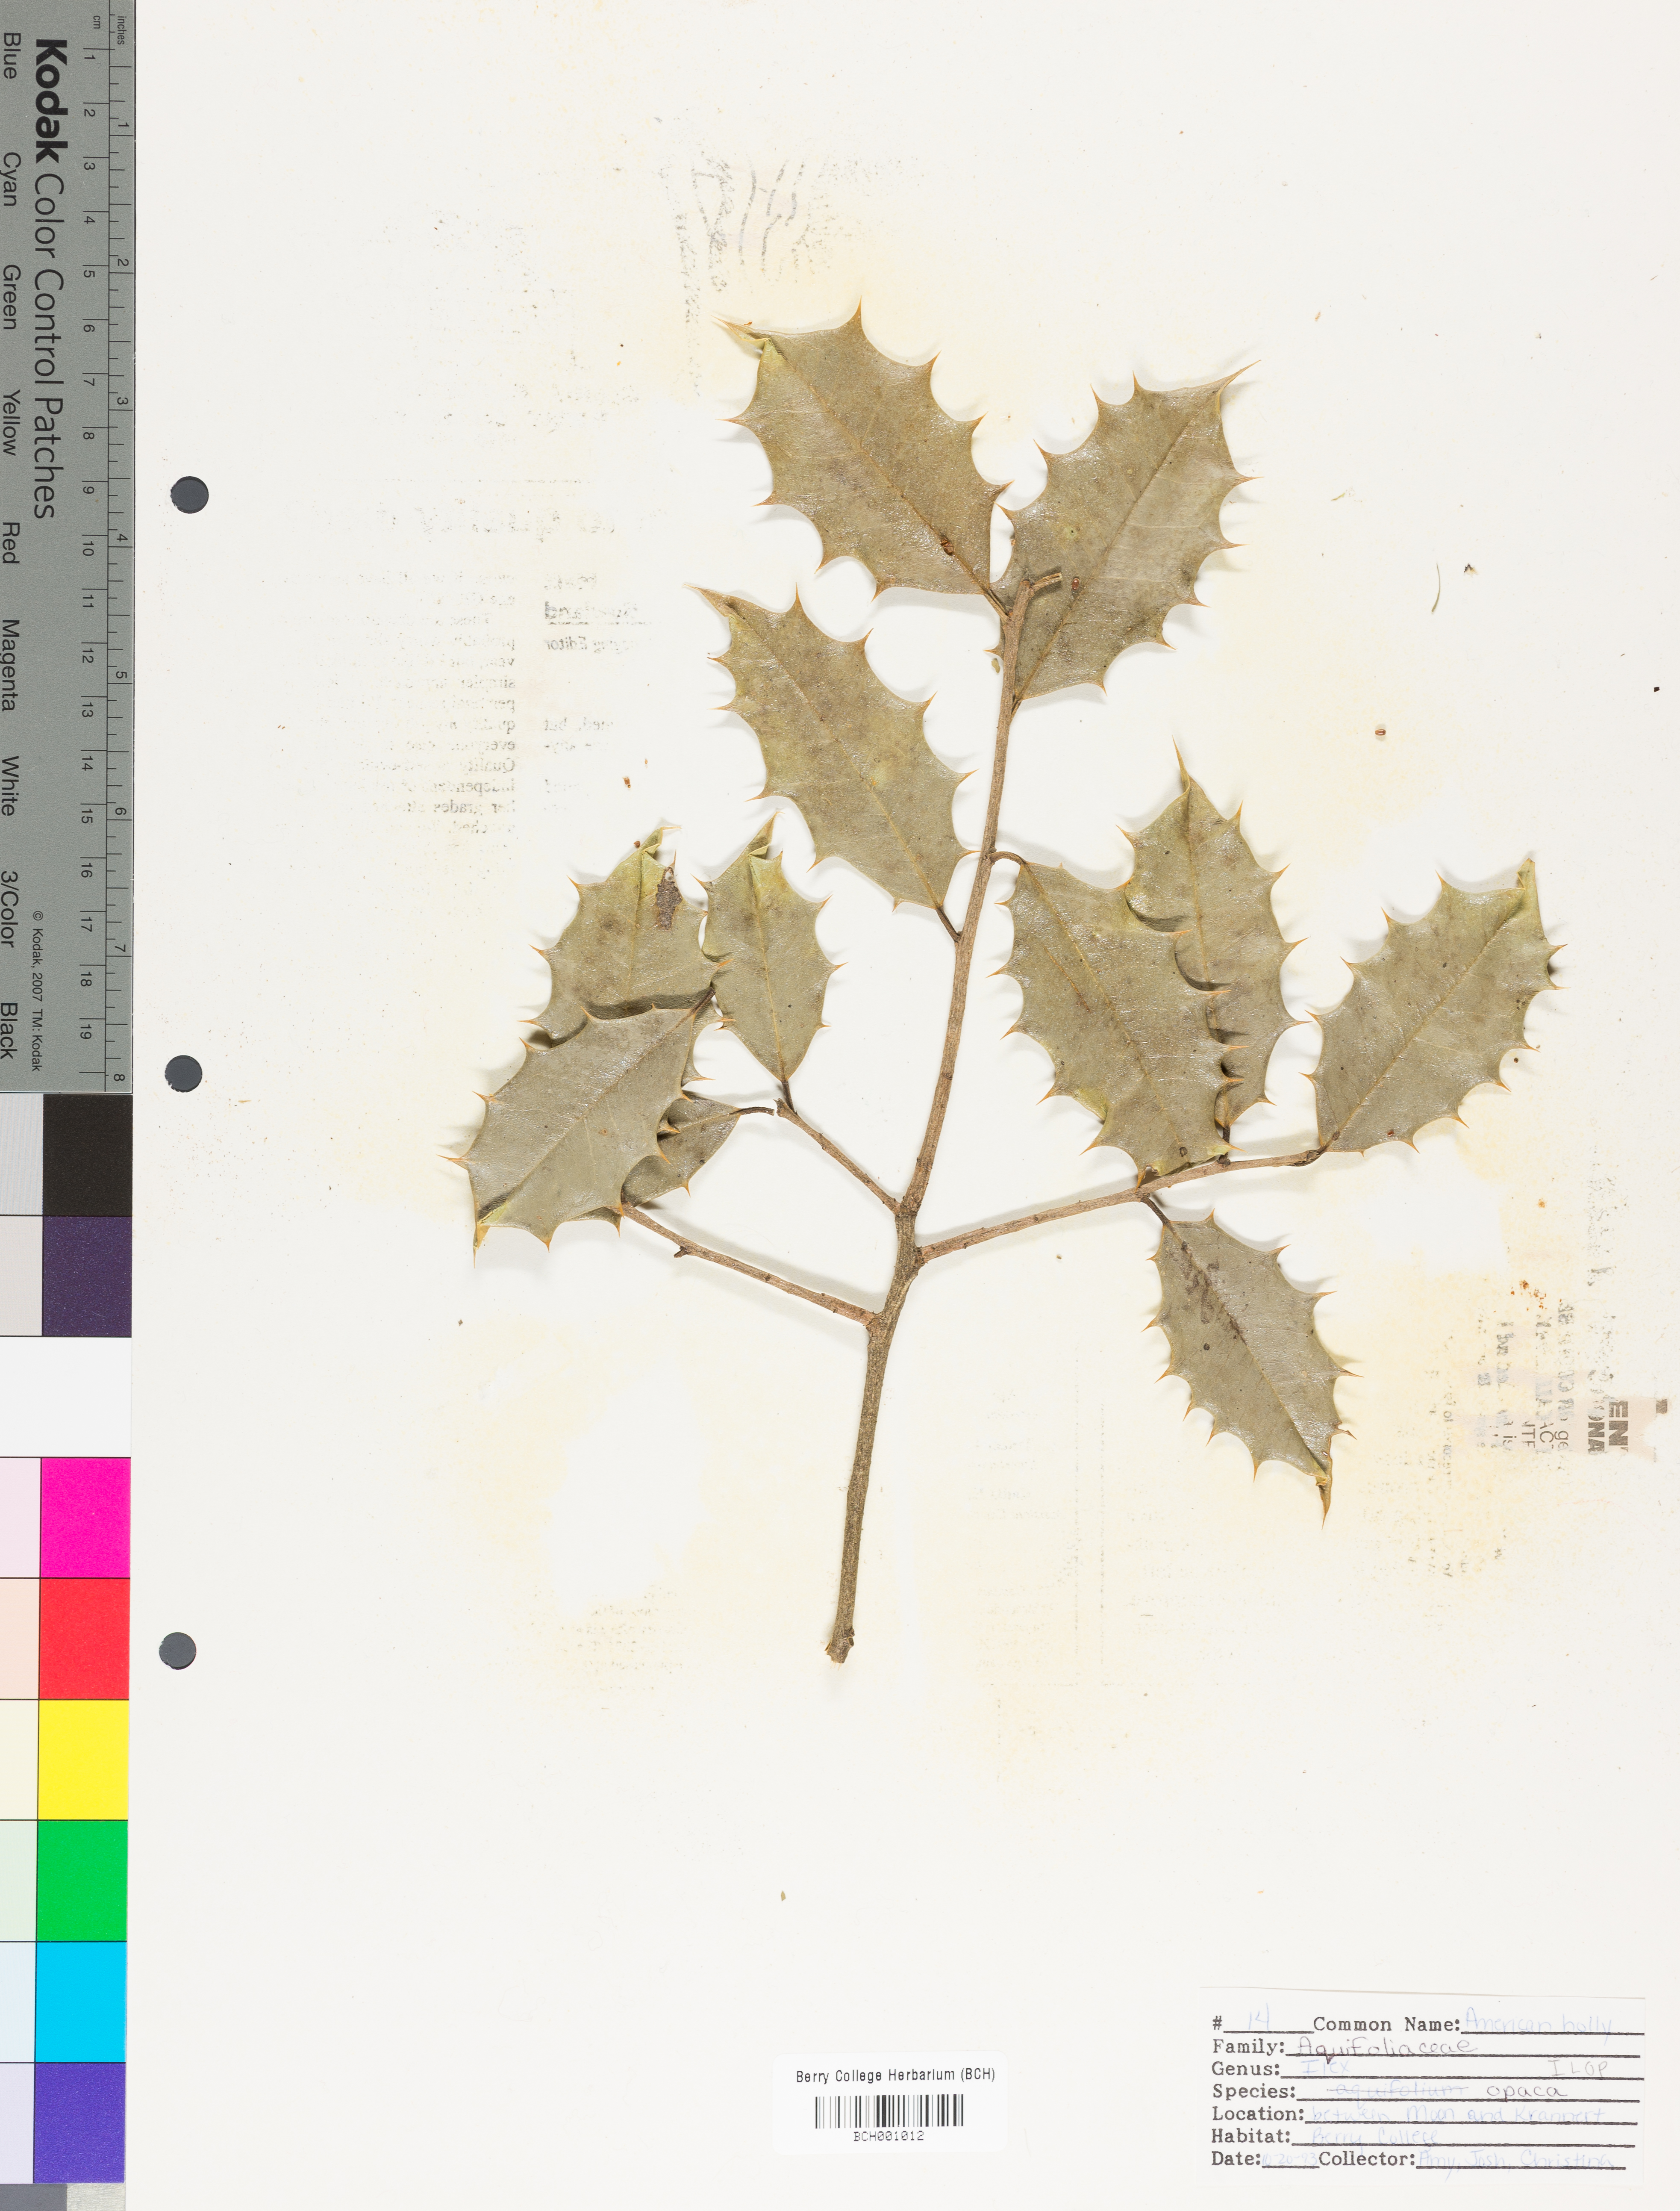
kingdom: Plantae
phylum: Tracheophyta
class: Magnoliopsida
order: Aquifoliales
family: Aquifoliaceae
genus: Ilex
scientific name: Ilex opaca
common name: American holly
